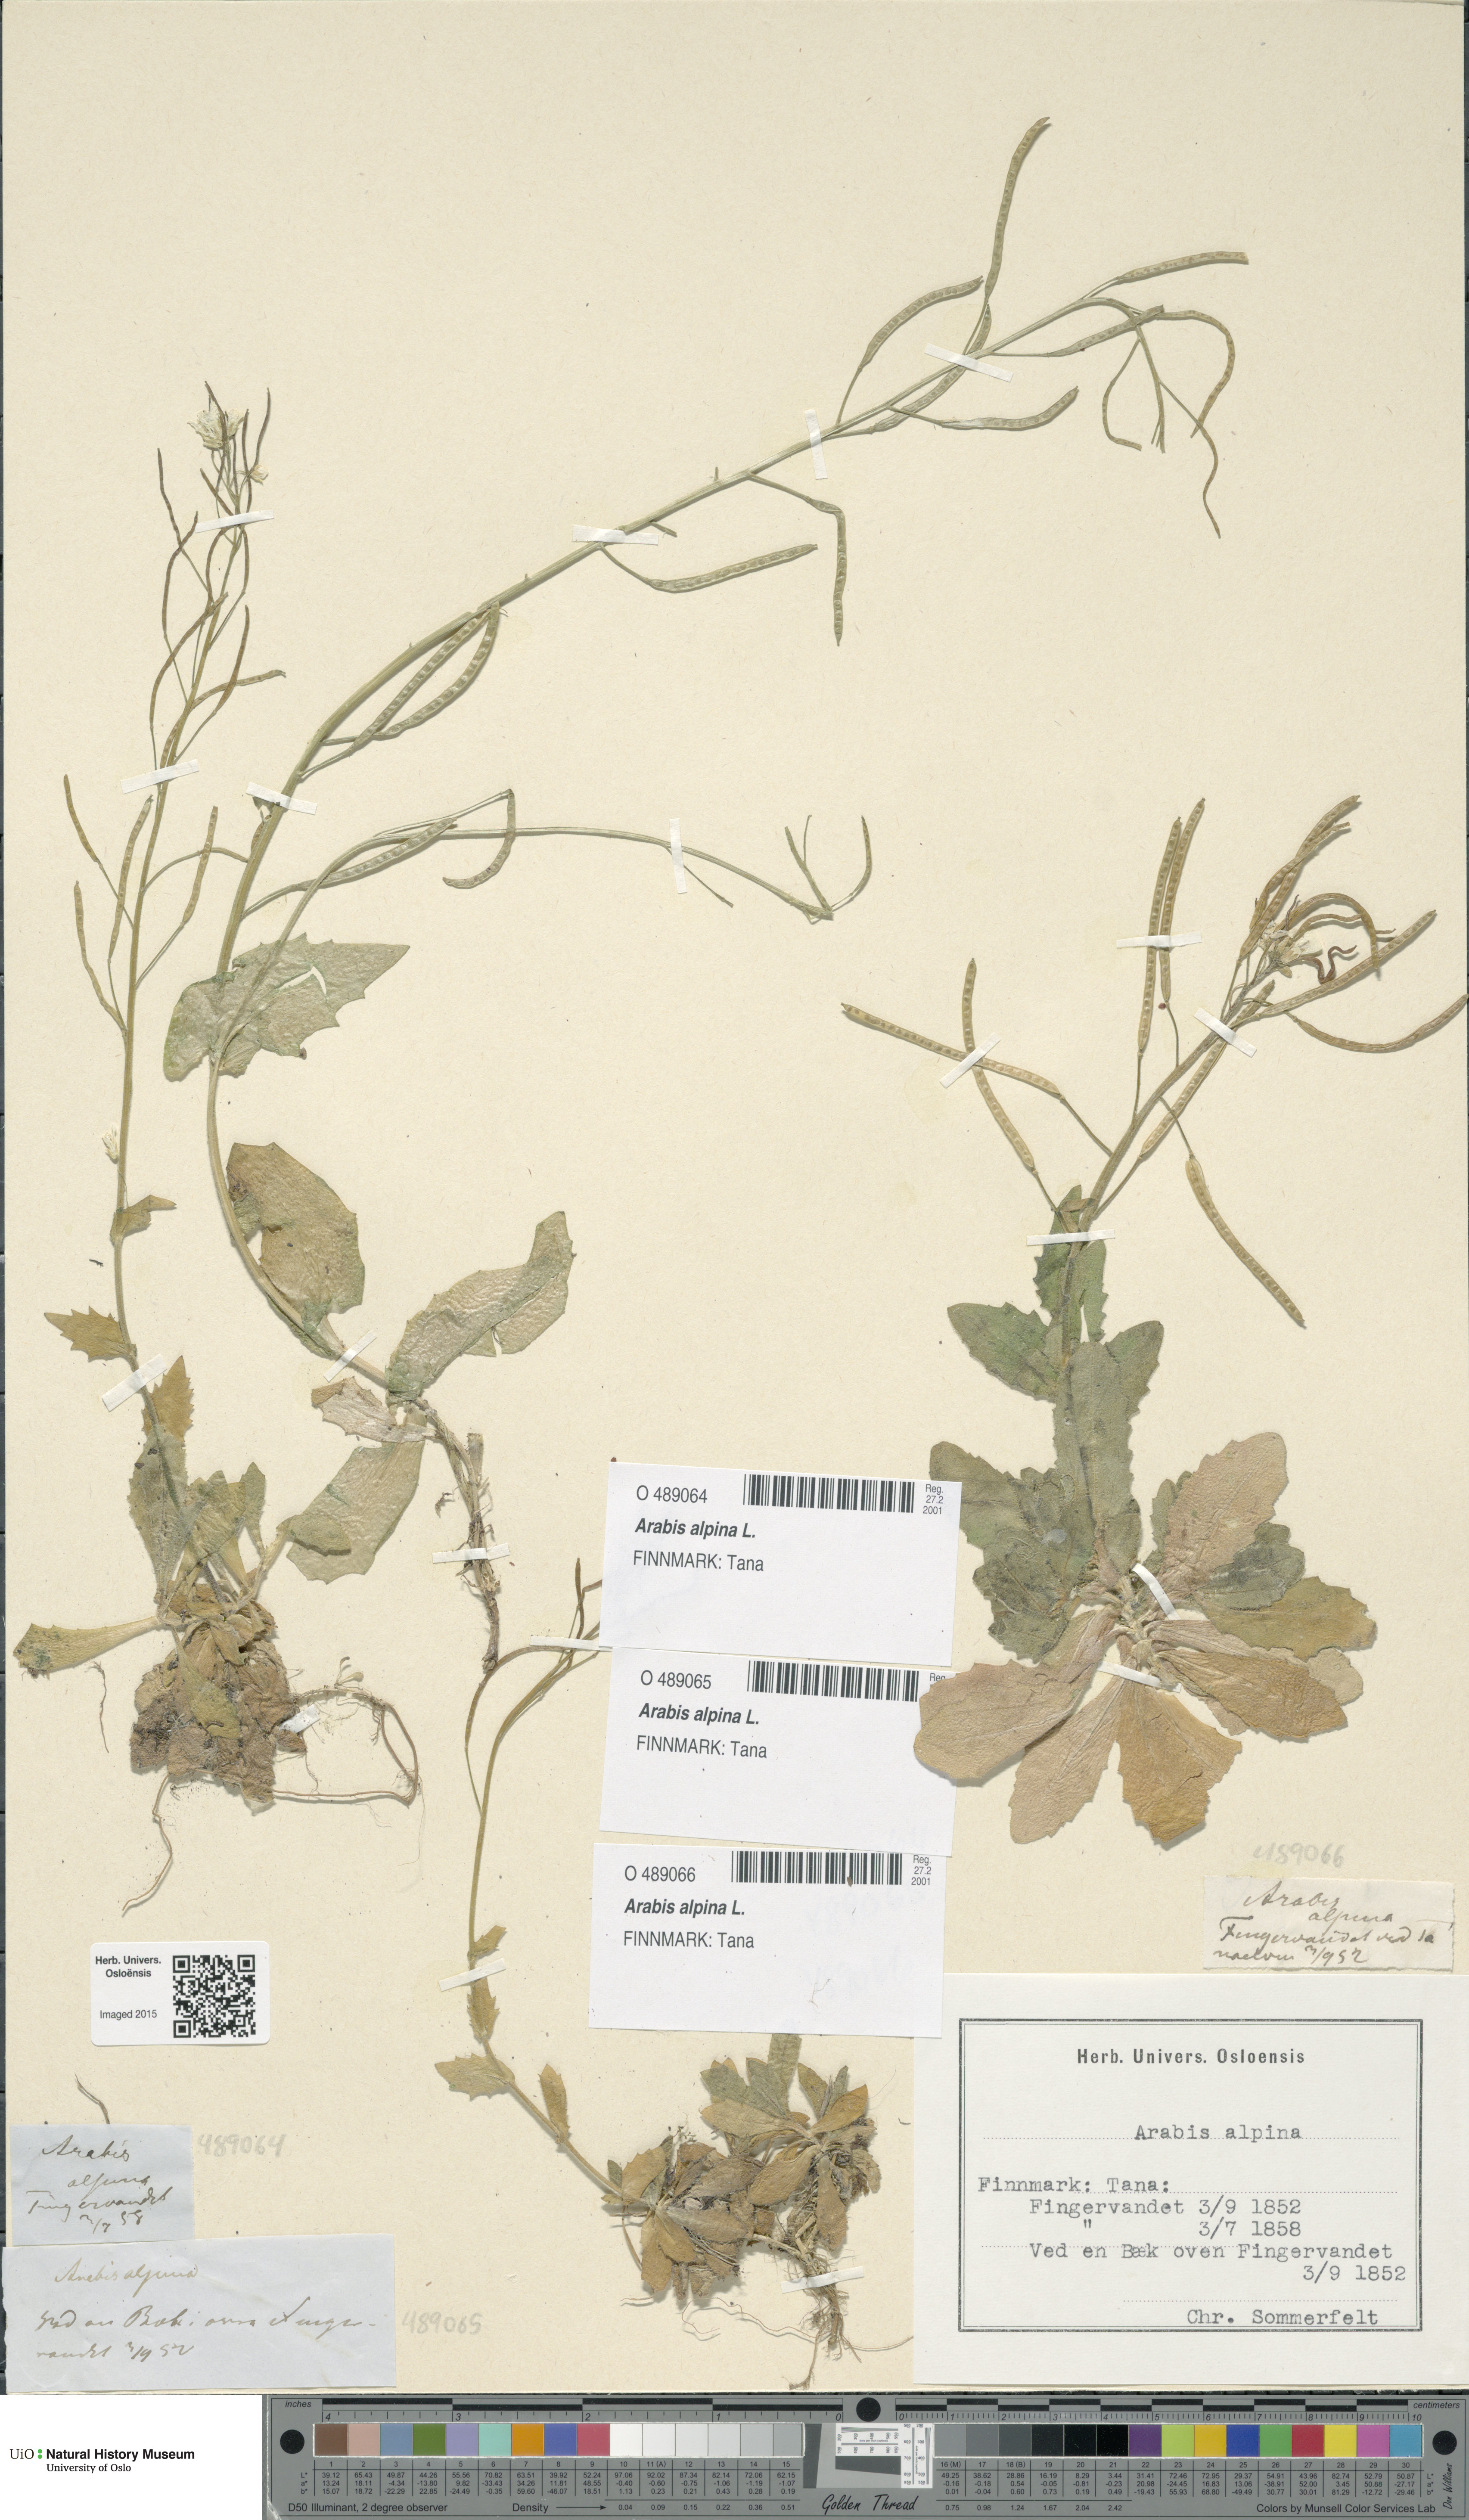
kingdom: Plantae
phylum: Tracheophyta
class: Magnoliopsida
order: Brassicales
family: Brassicaceae
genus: Arabis
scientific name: Arabis alpina
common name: Alpine rock-cress
